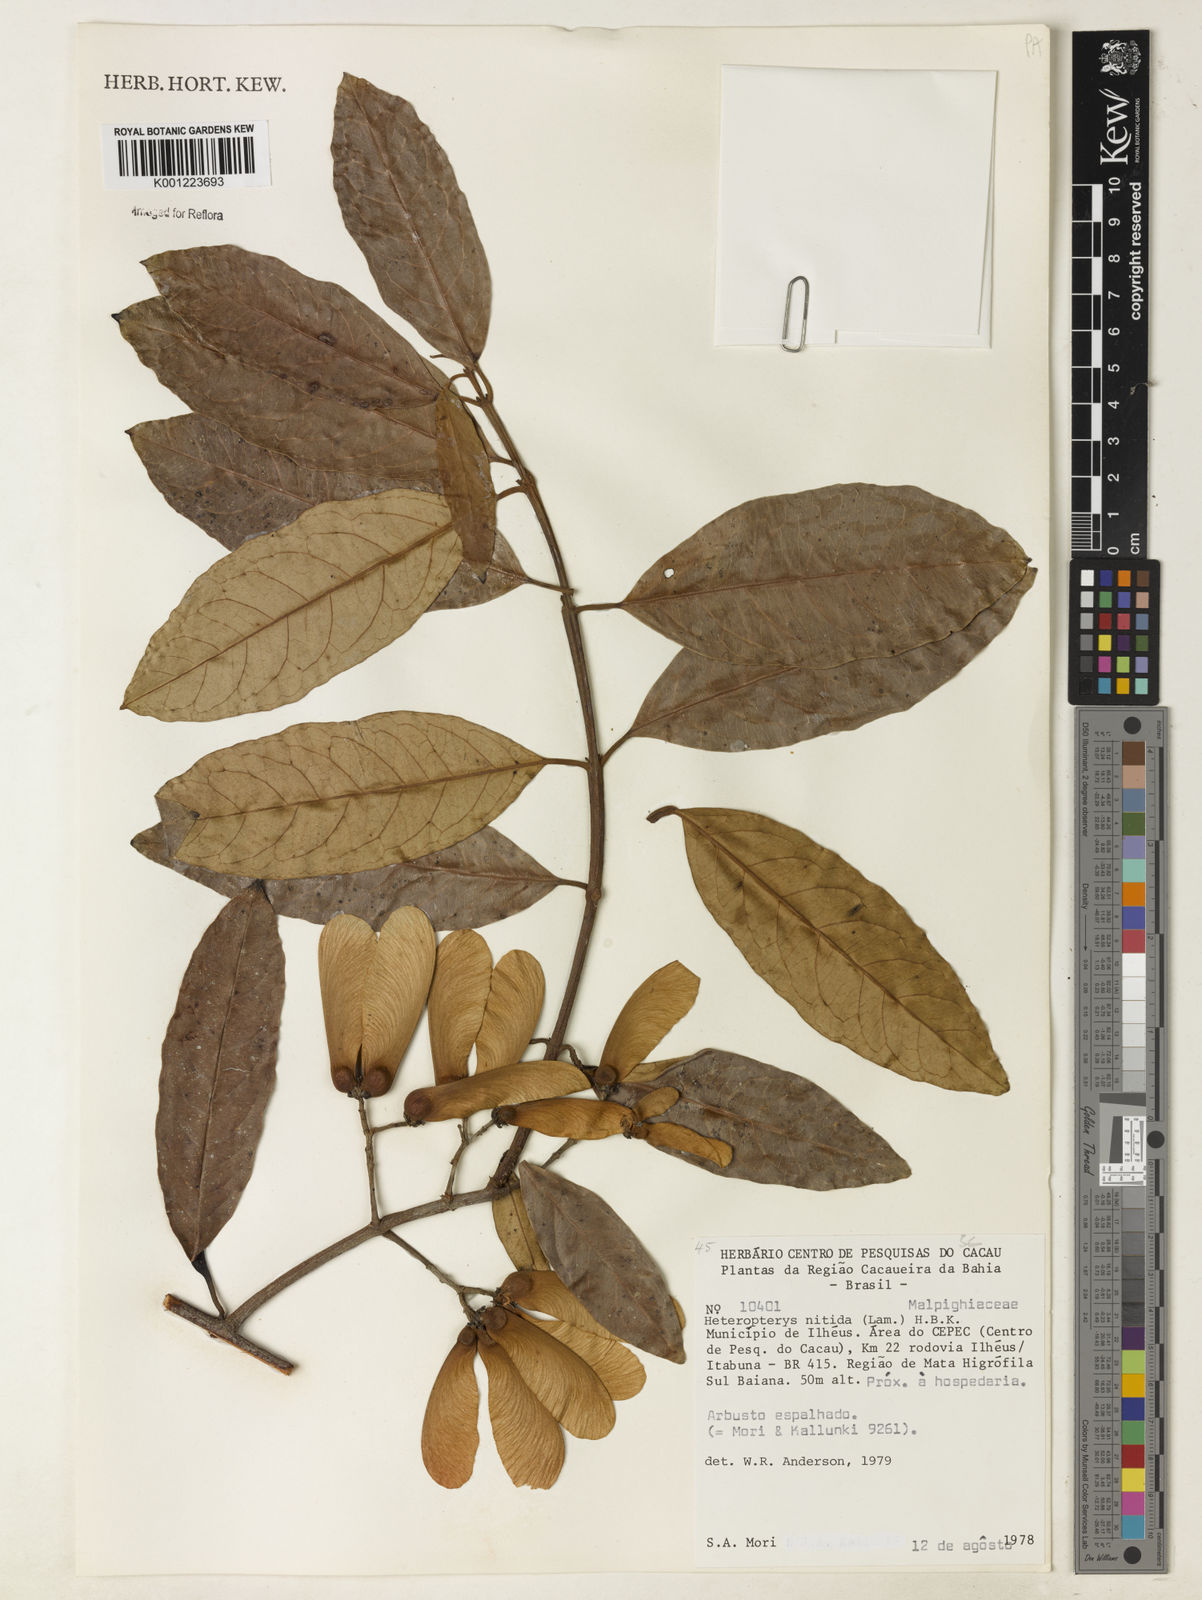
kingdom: Plantae
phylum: Tracheophyta
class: Magnoliopsida
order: Malpighiales
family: Malpighiaceae
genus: Heteropterys
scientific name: Heteropterys nitida
